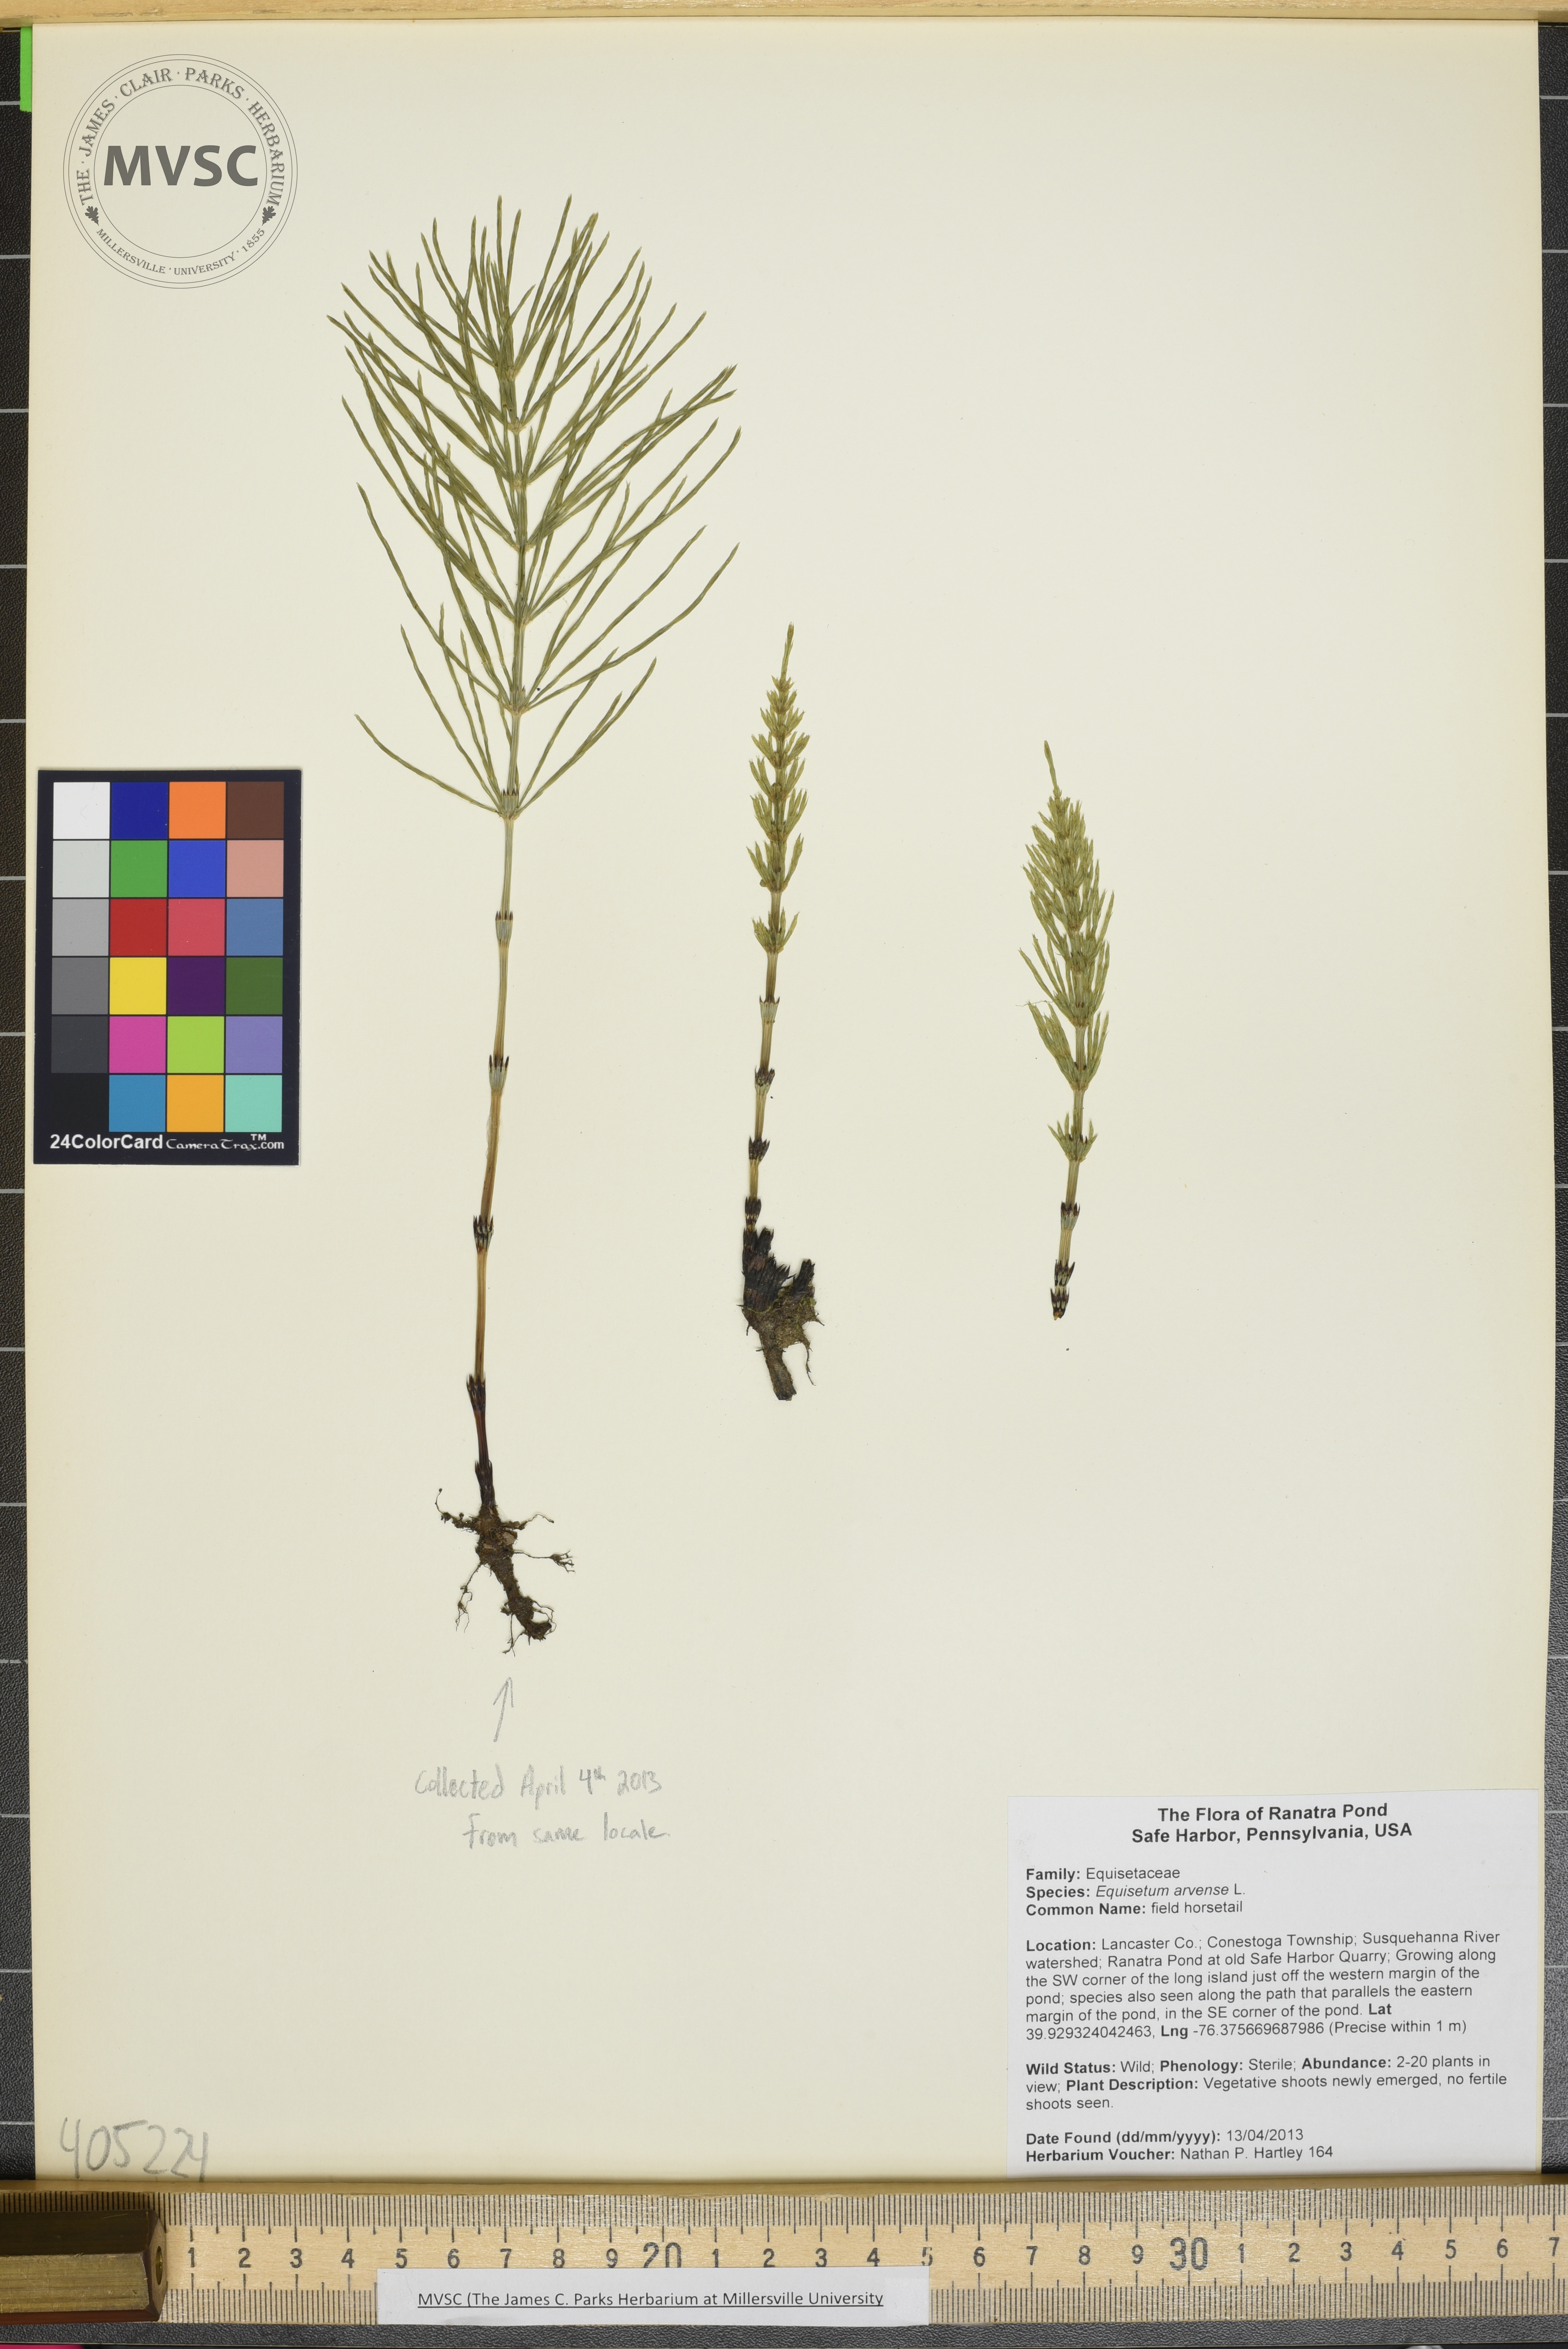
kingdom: Plantae
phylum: Tracheophyta
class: Polypodiopsida
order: Equisetales
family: Equisetaceae
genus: Equisetum
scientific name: Equisetum arvense
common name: field horsetail
